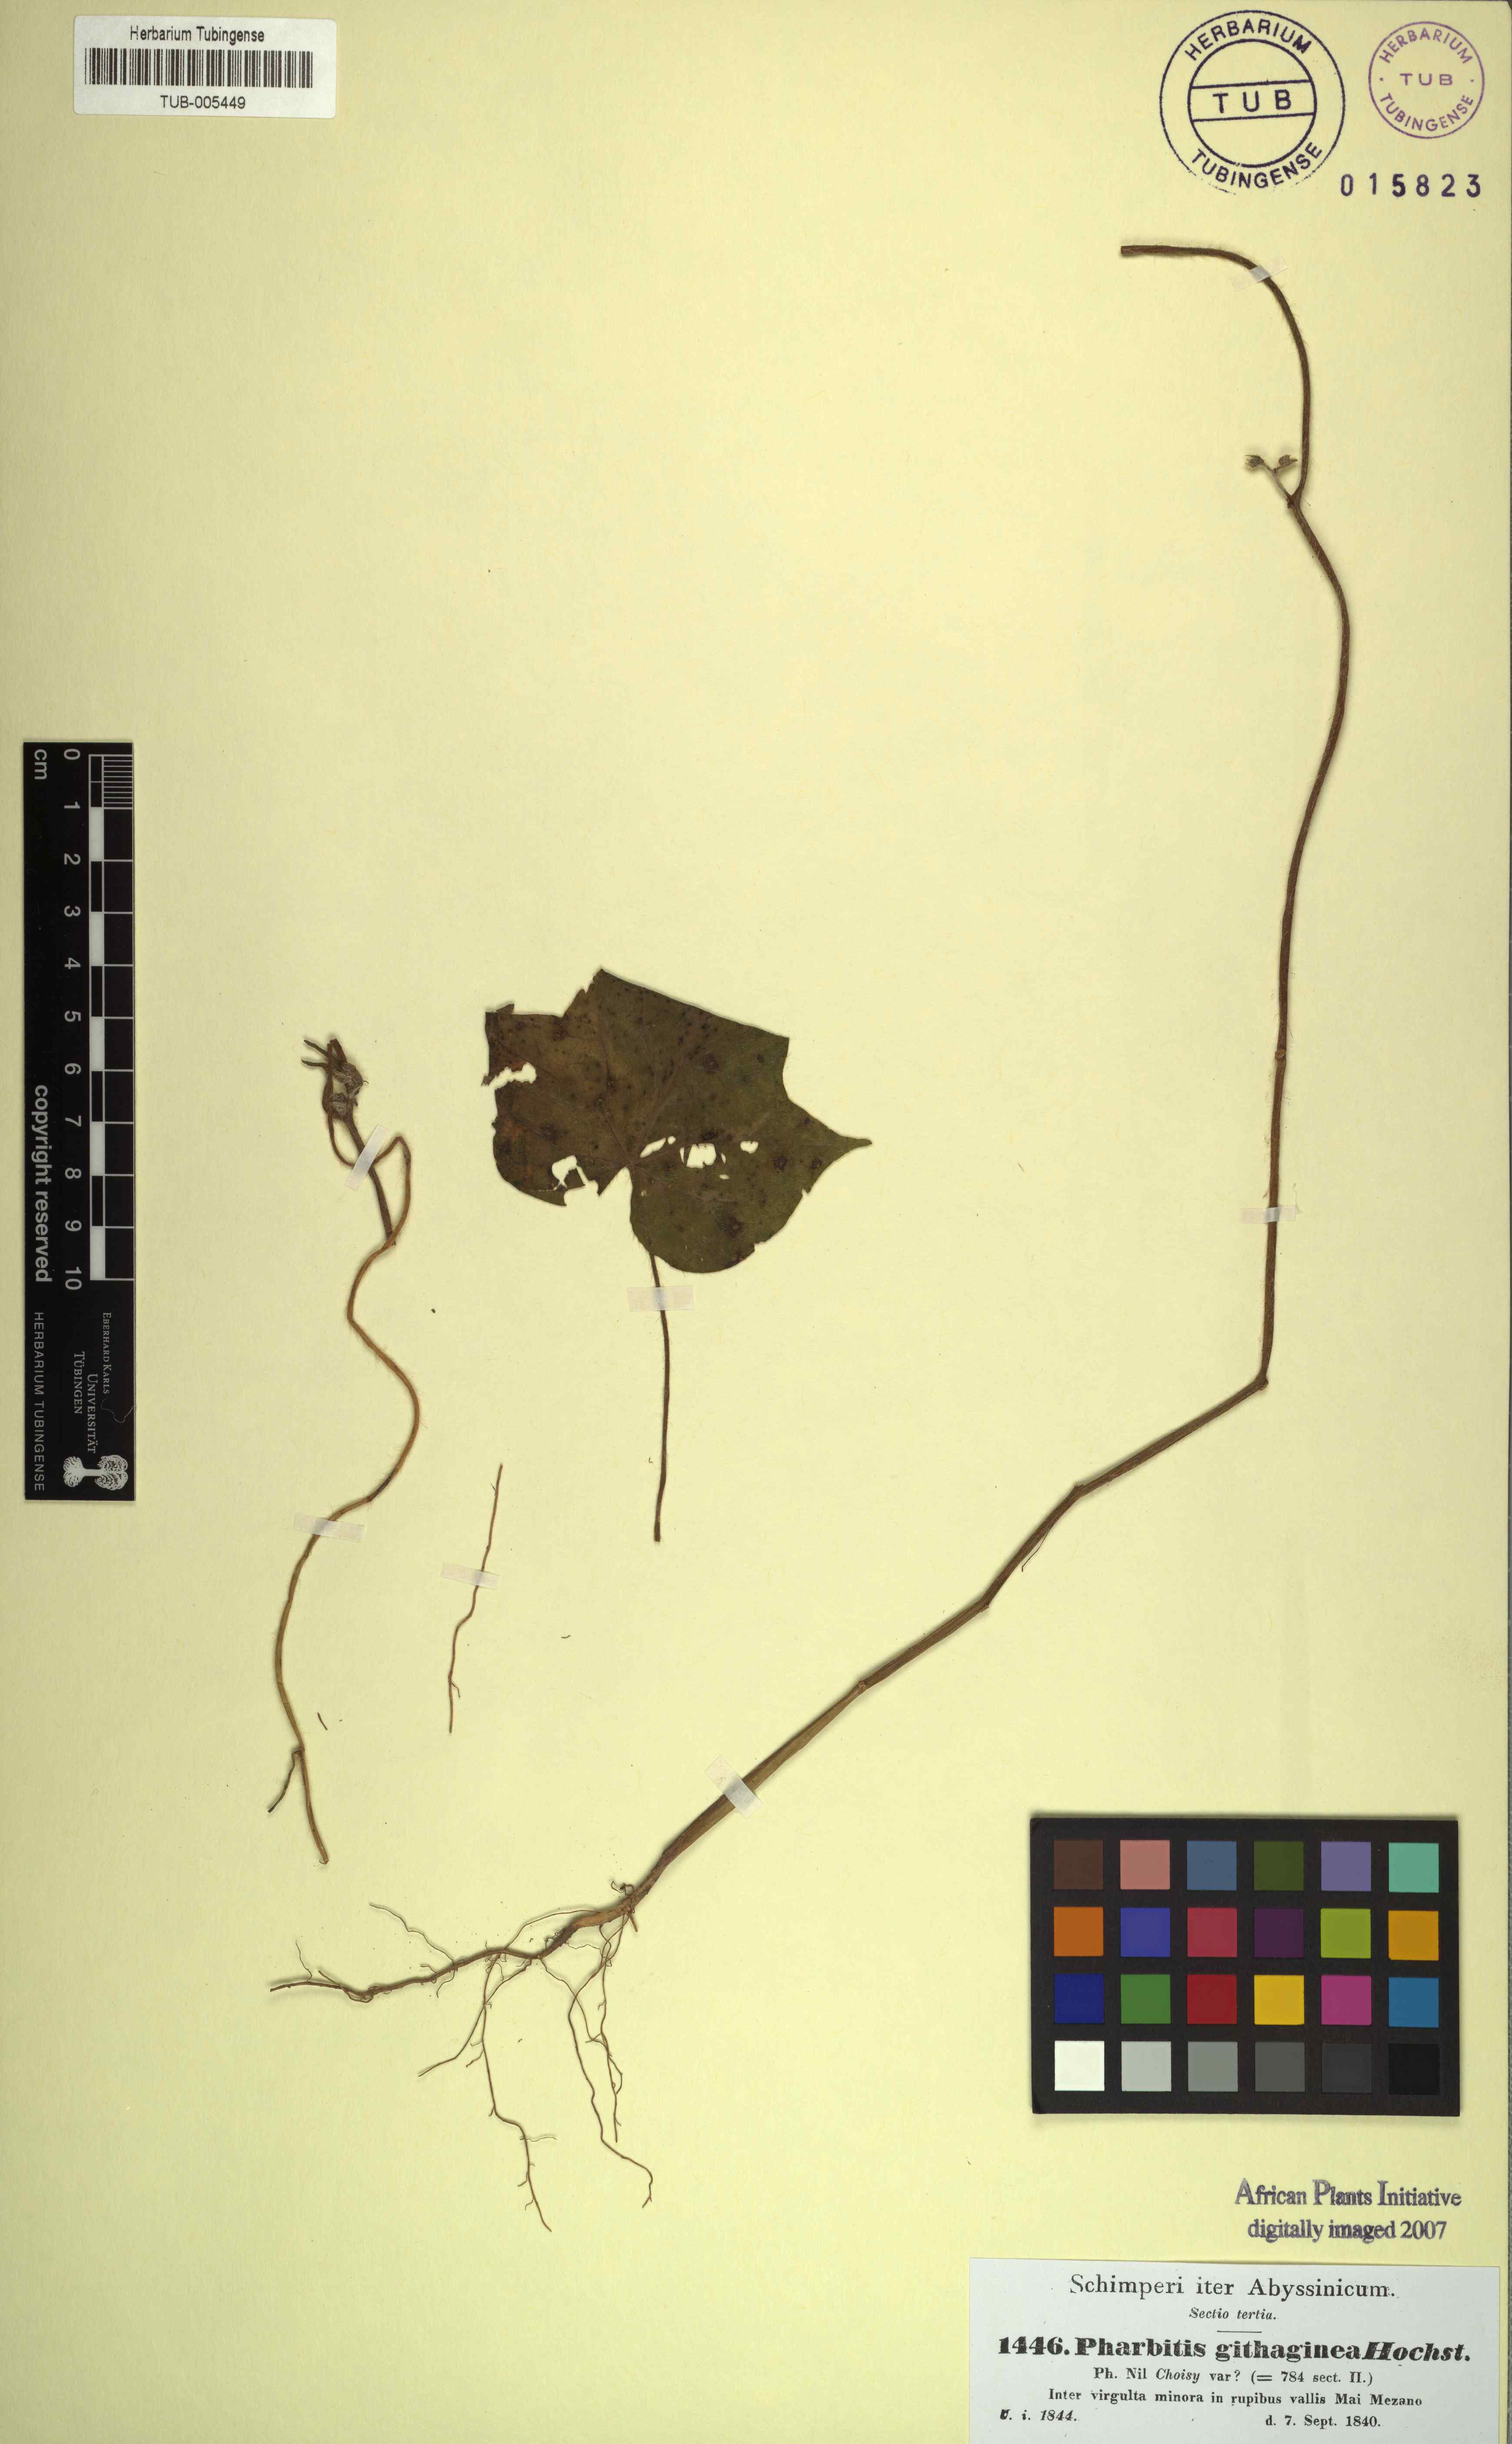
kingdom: Plantae
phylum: Tracheophyta
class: Magnoliopsida
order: Solanales
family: Convolvulaceae
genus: Ipomoea
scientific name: Ipomoea
